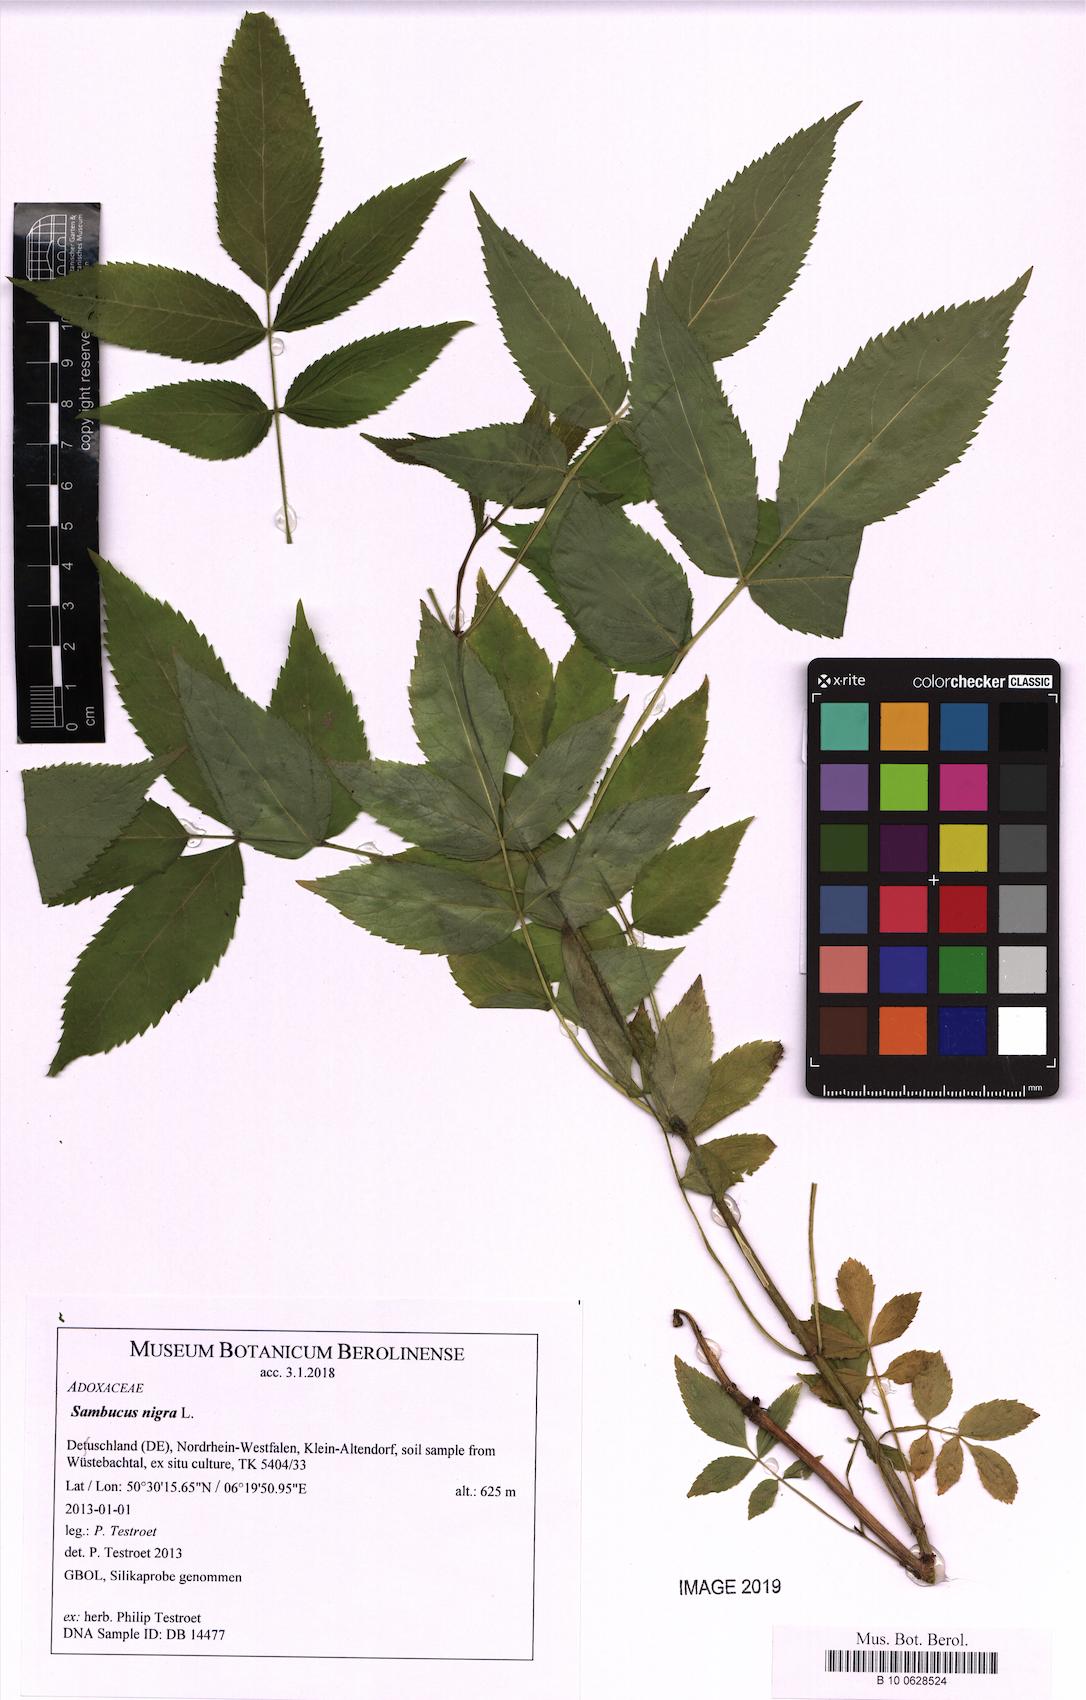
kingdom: Plantae
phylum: Tracheophyta
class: Magnoliopsida
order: Dipsacales
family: Viburnaceae
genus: Sambucus
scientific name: Sambucus nigra
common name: Elder
